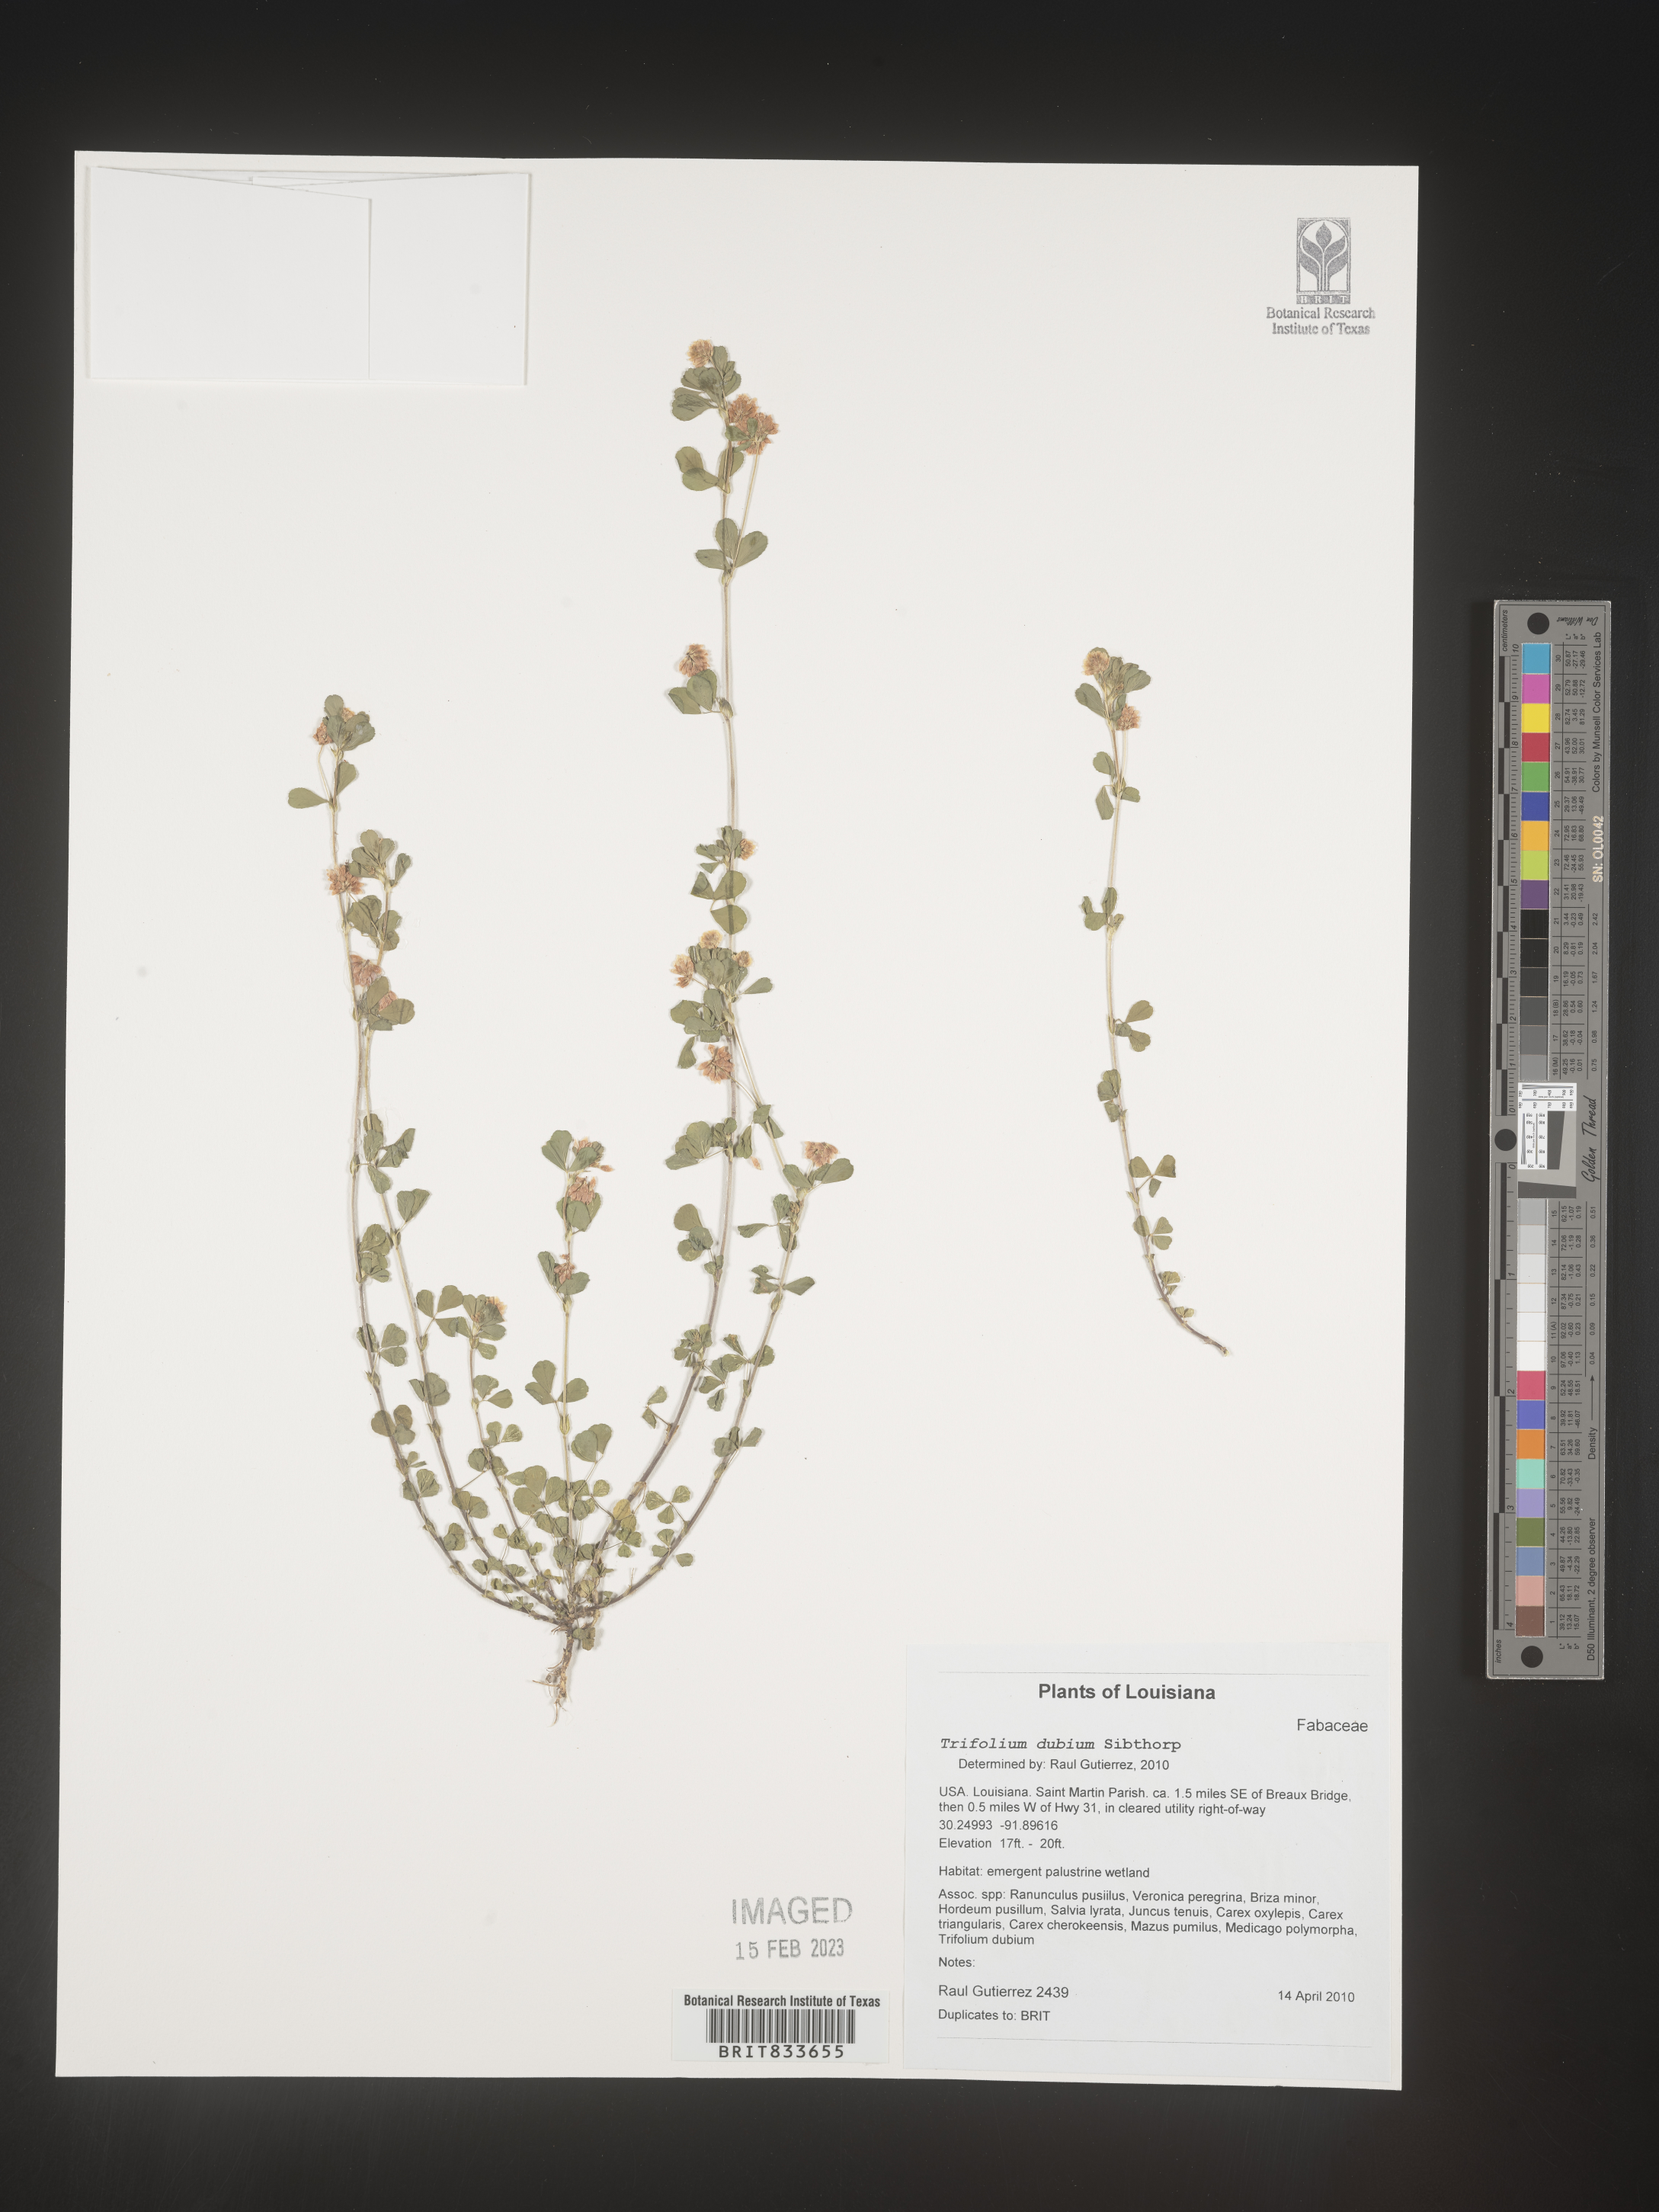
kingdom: Plantae
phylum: Tracheophyta
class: Magnoliopsida
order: Fabales
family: Fabaceae
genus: Trifolium
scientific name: Trifolium dubium
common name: Suckling clover
